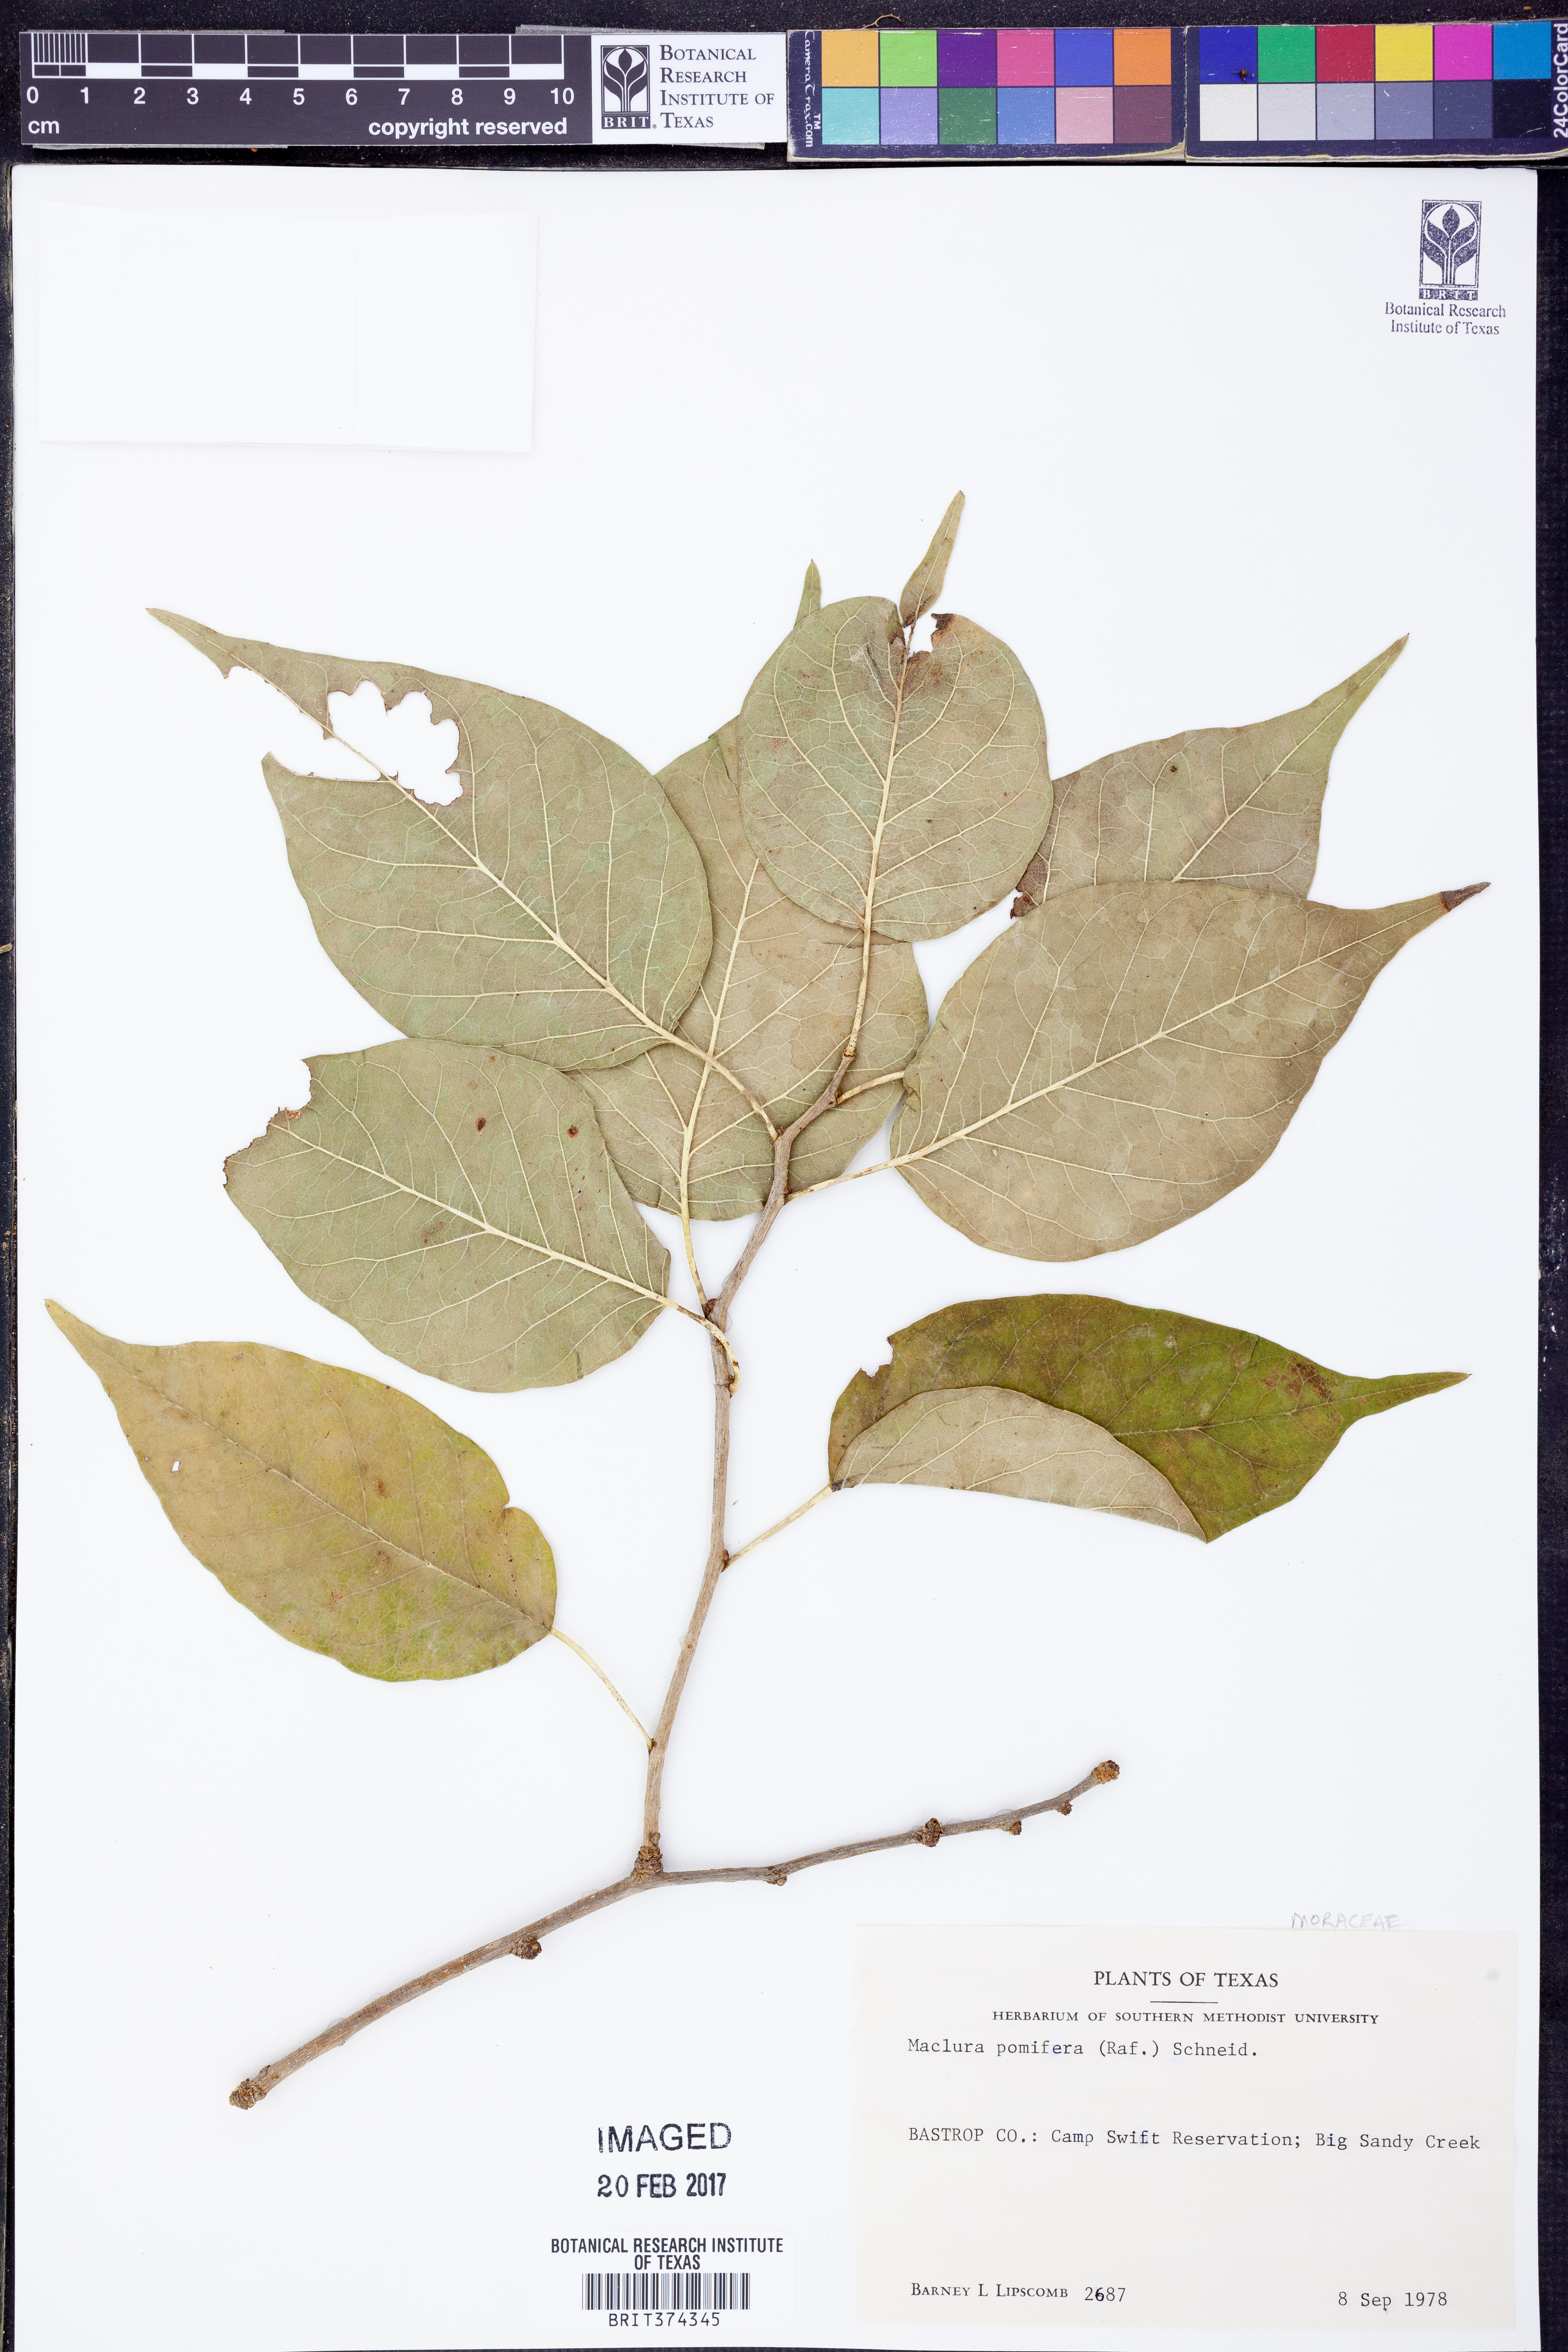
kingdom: Plantae
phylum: Tracheophyta
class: Magnoliopsida
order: Rosales
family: Moraceae
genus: Maclura
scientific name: Maclura pomifera
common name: Osage-orange
